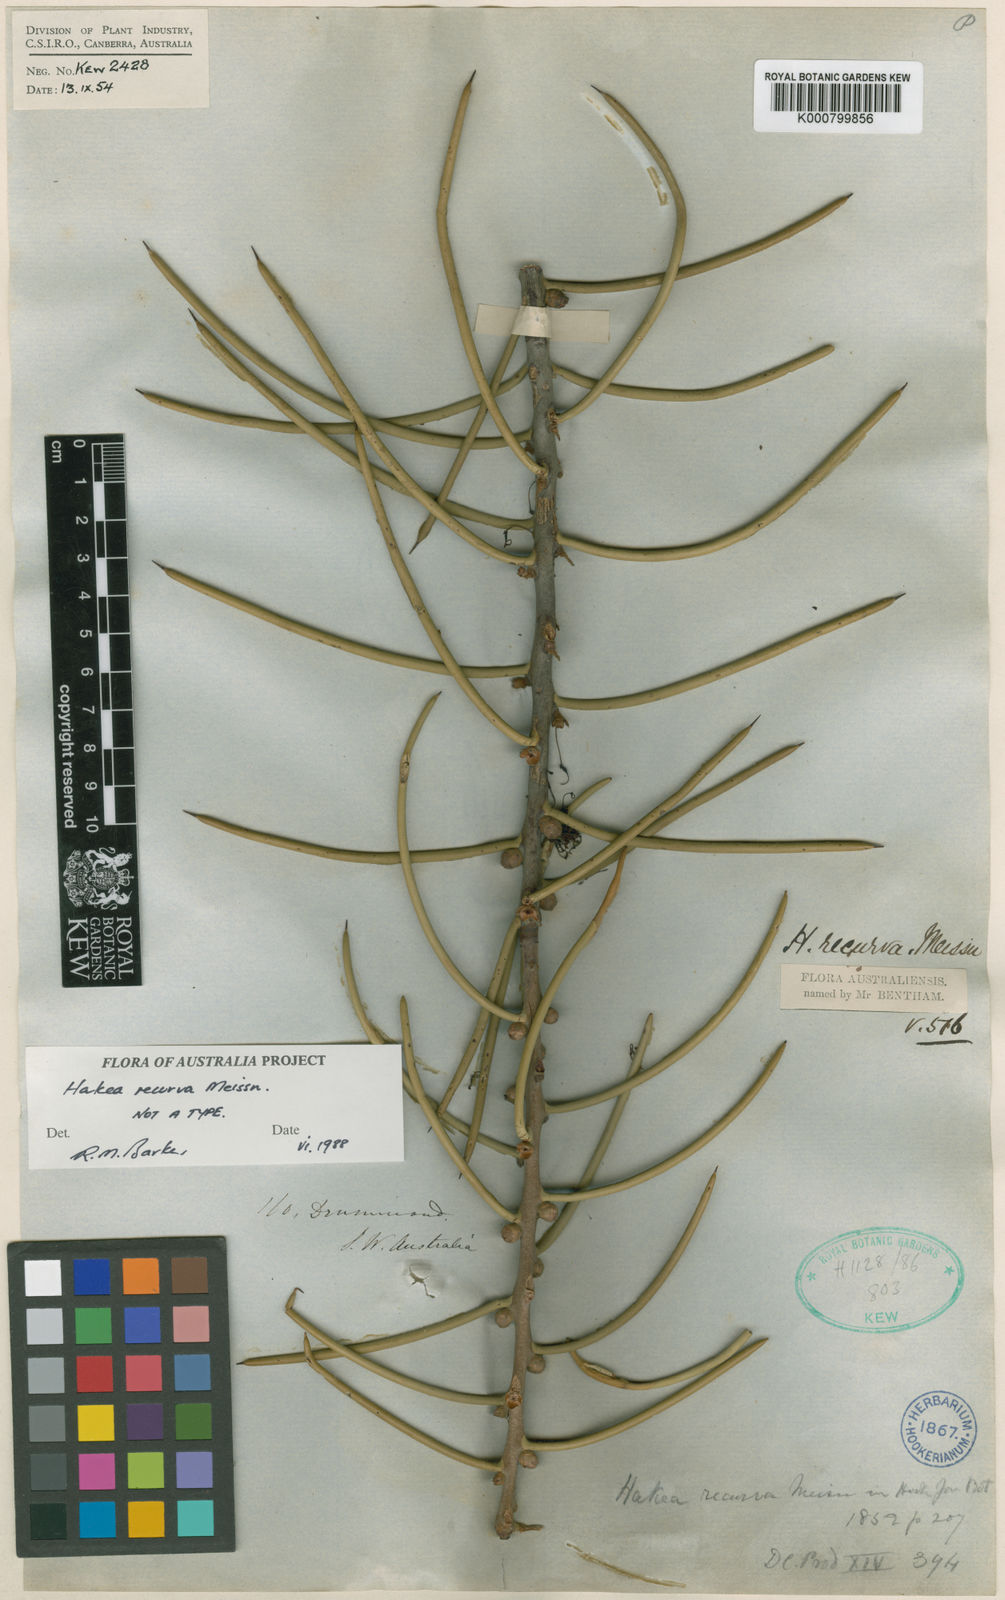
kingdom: Plantae
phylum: Tracheophyta
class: Magnoliopsida
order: Proteales
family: Proteaceae
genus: Hakea
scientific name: Hakea recurva
